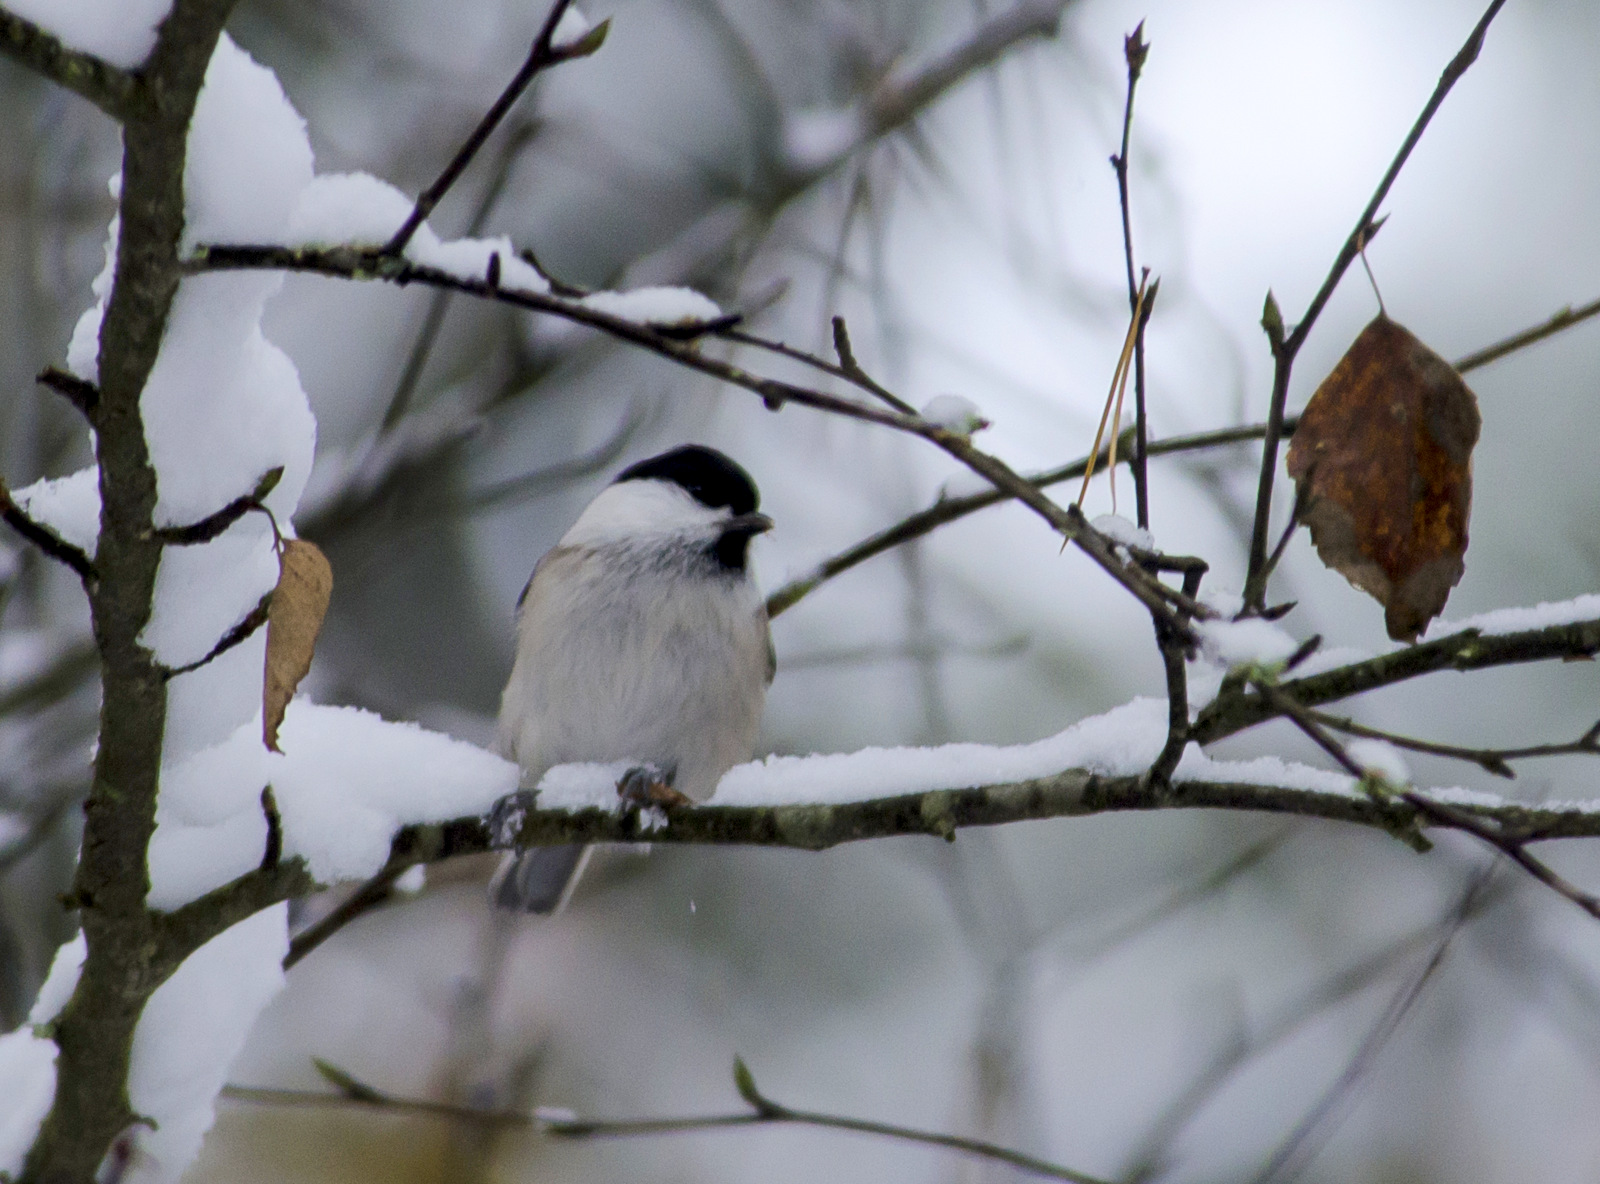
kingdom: Animalia
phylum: Chordata
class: Aves
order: Passeriformes
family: Paridae
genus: Poecile
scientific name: Poecile montanus
